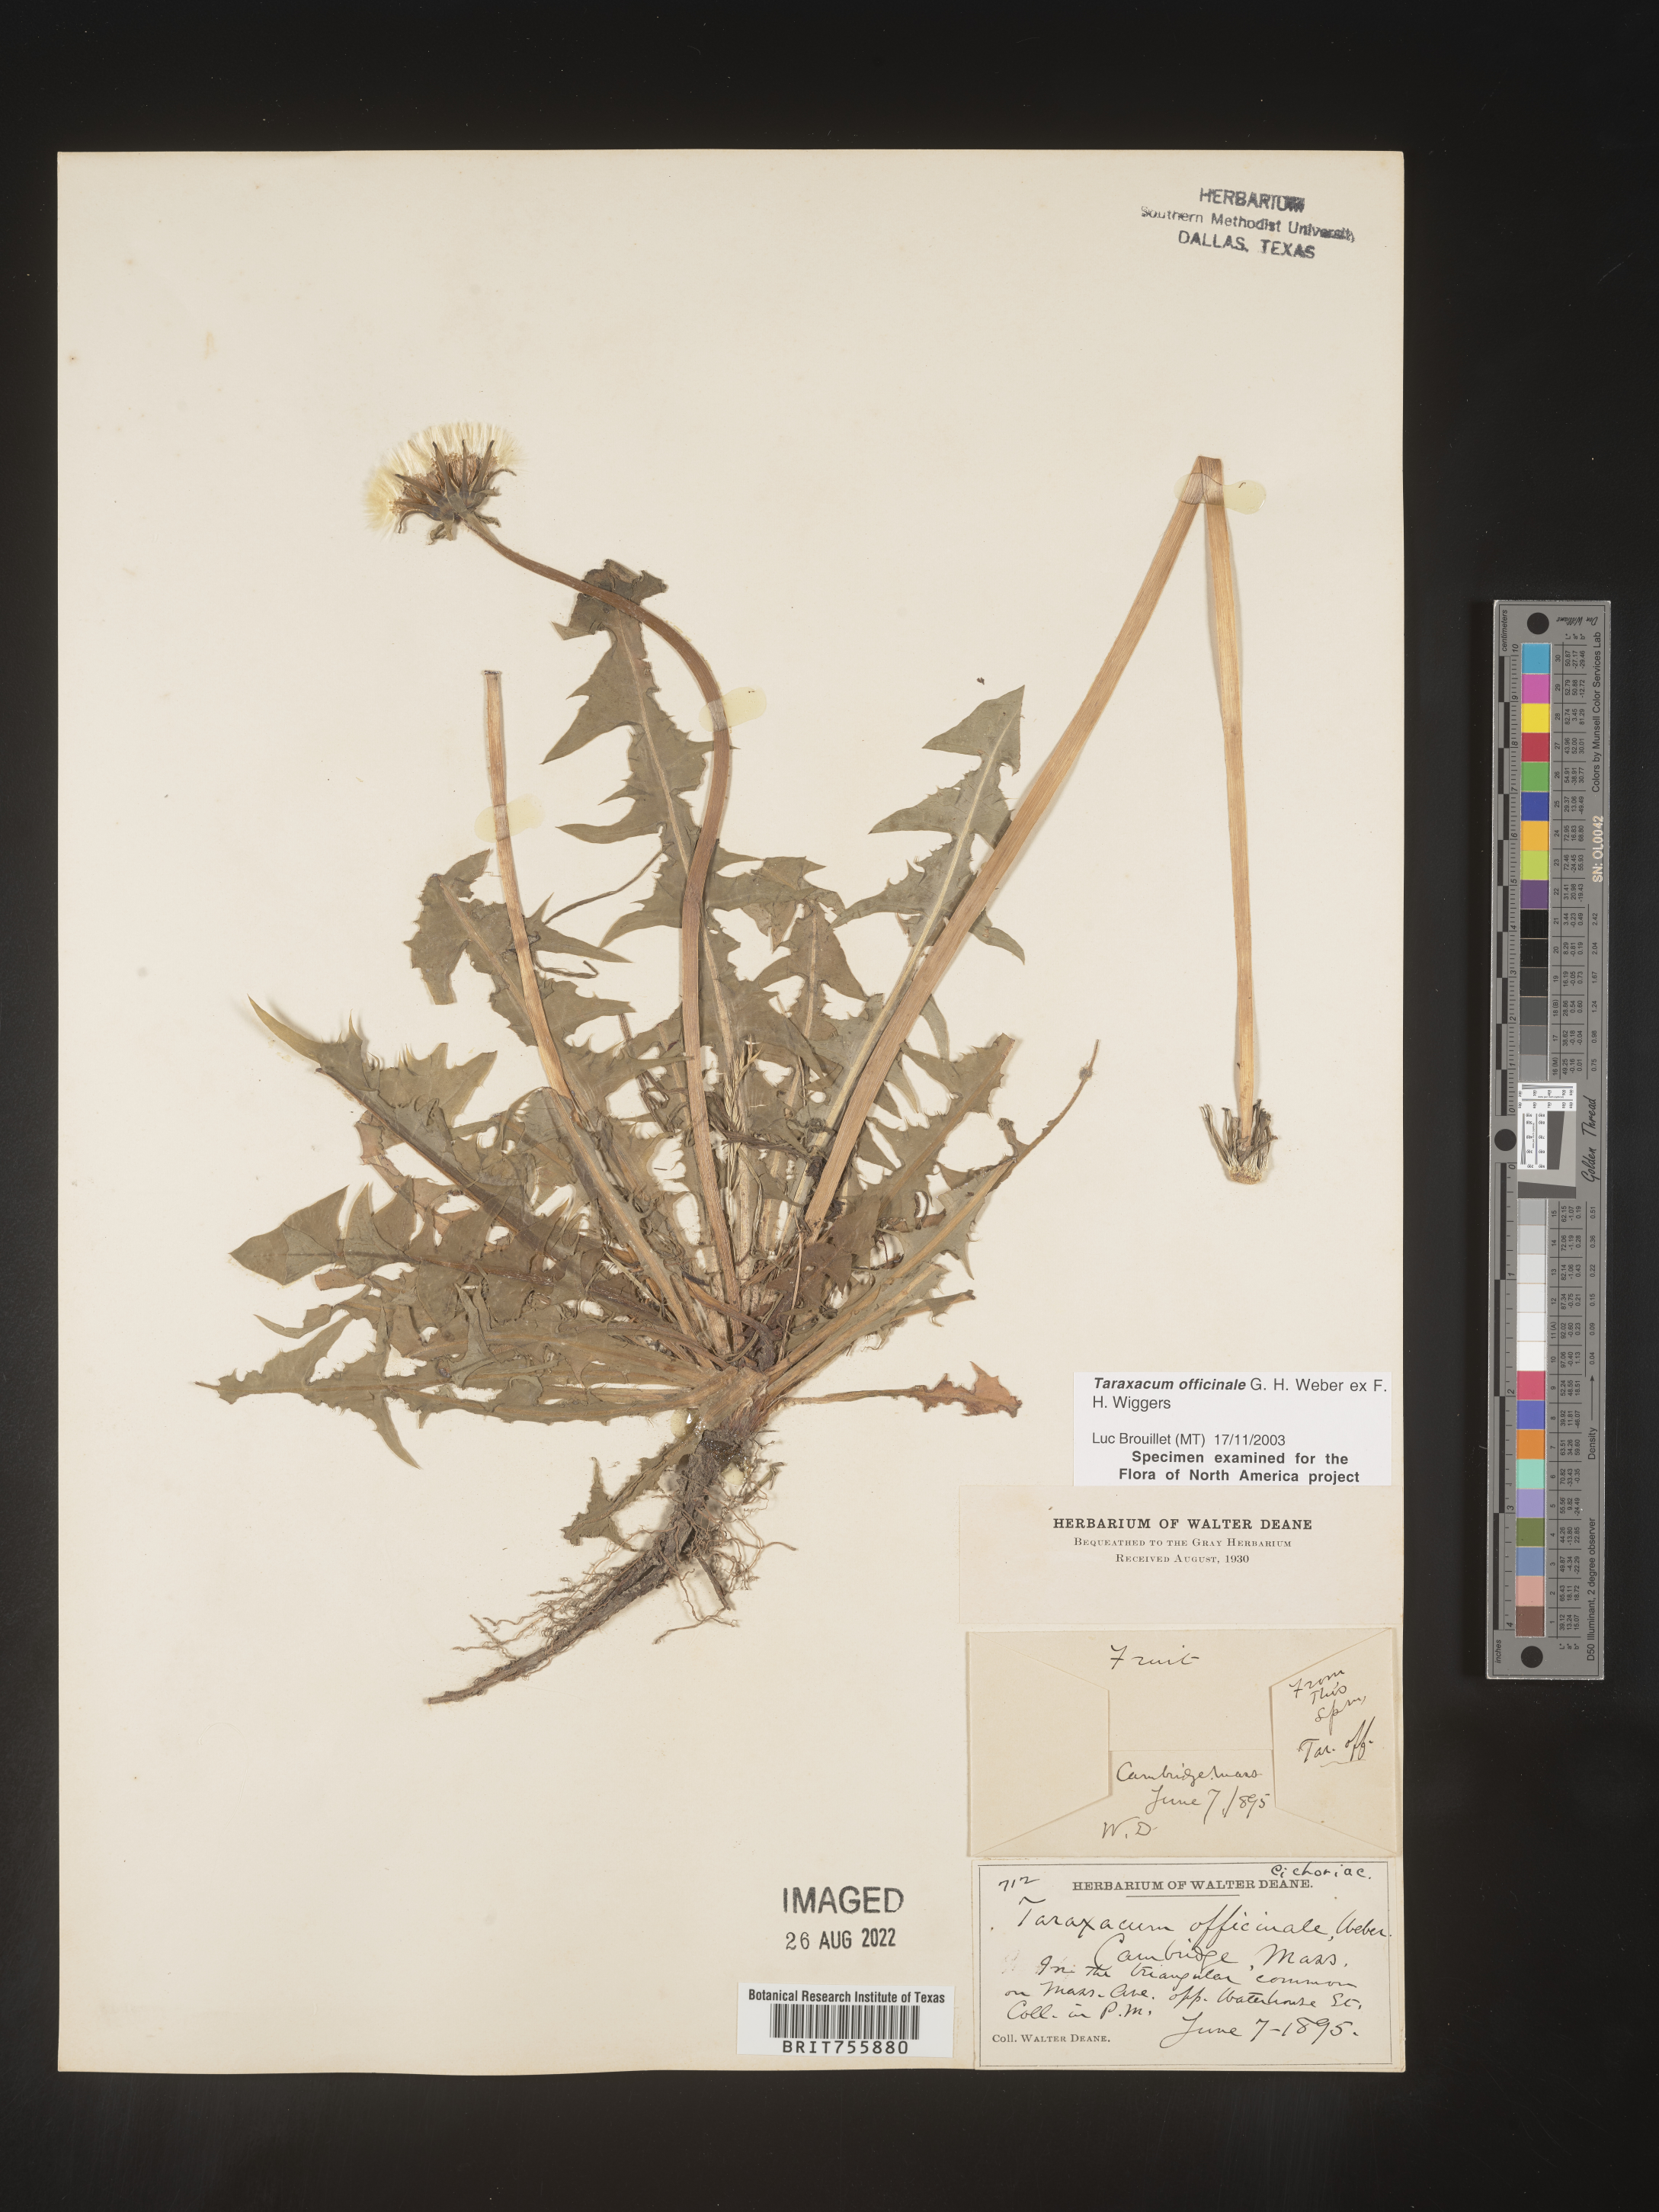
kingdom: Plantae
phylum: Tracheophyta
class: Magnoliopsida
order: Asterales
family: Asteraceae
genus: Taraxacum
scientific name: Taraxacum officinale
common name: Common dandelion
